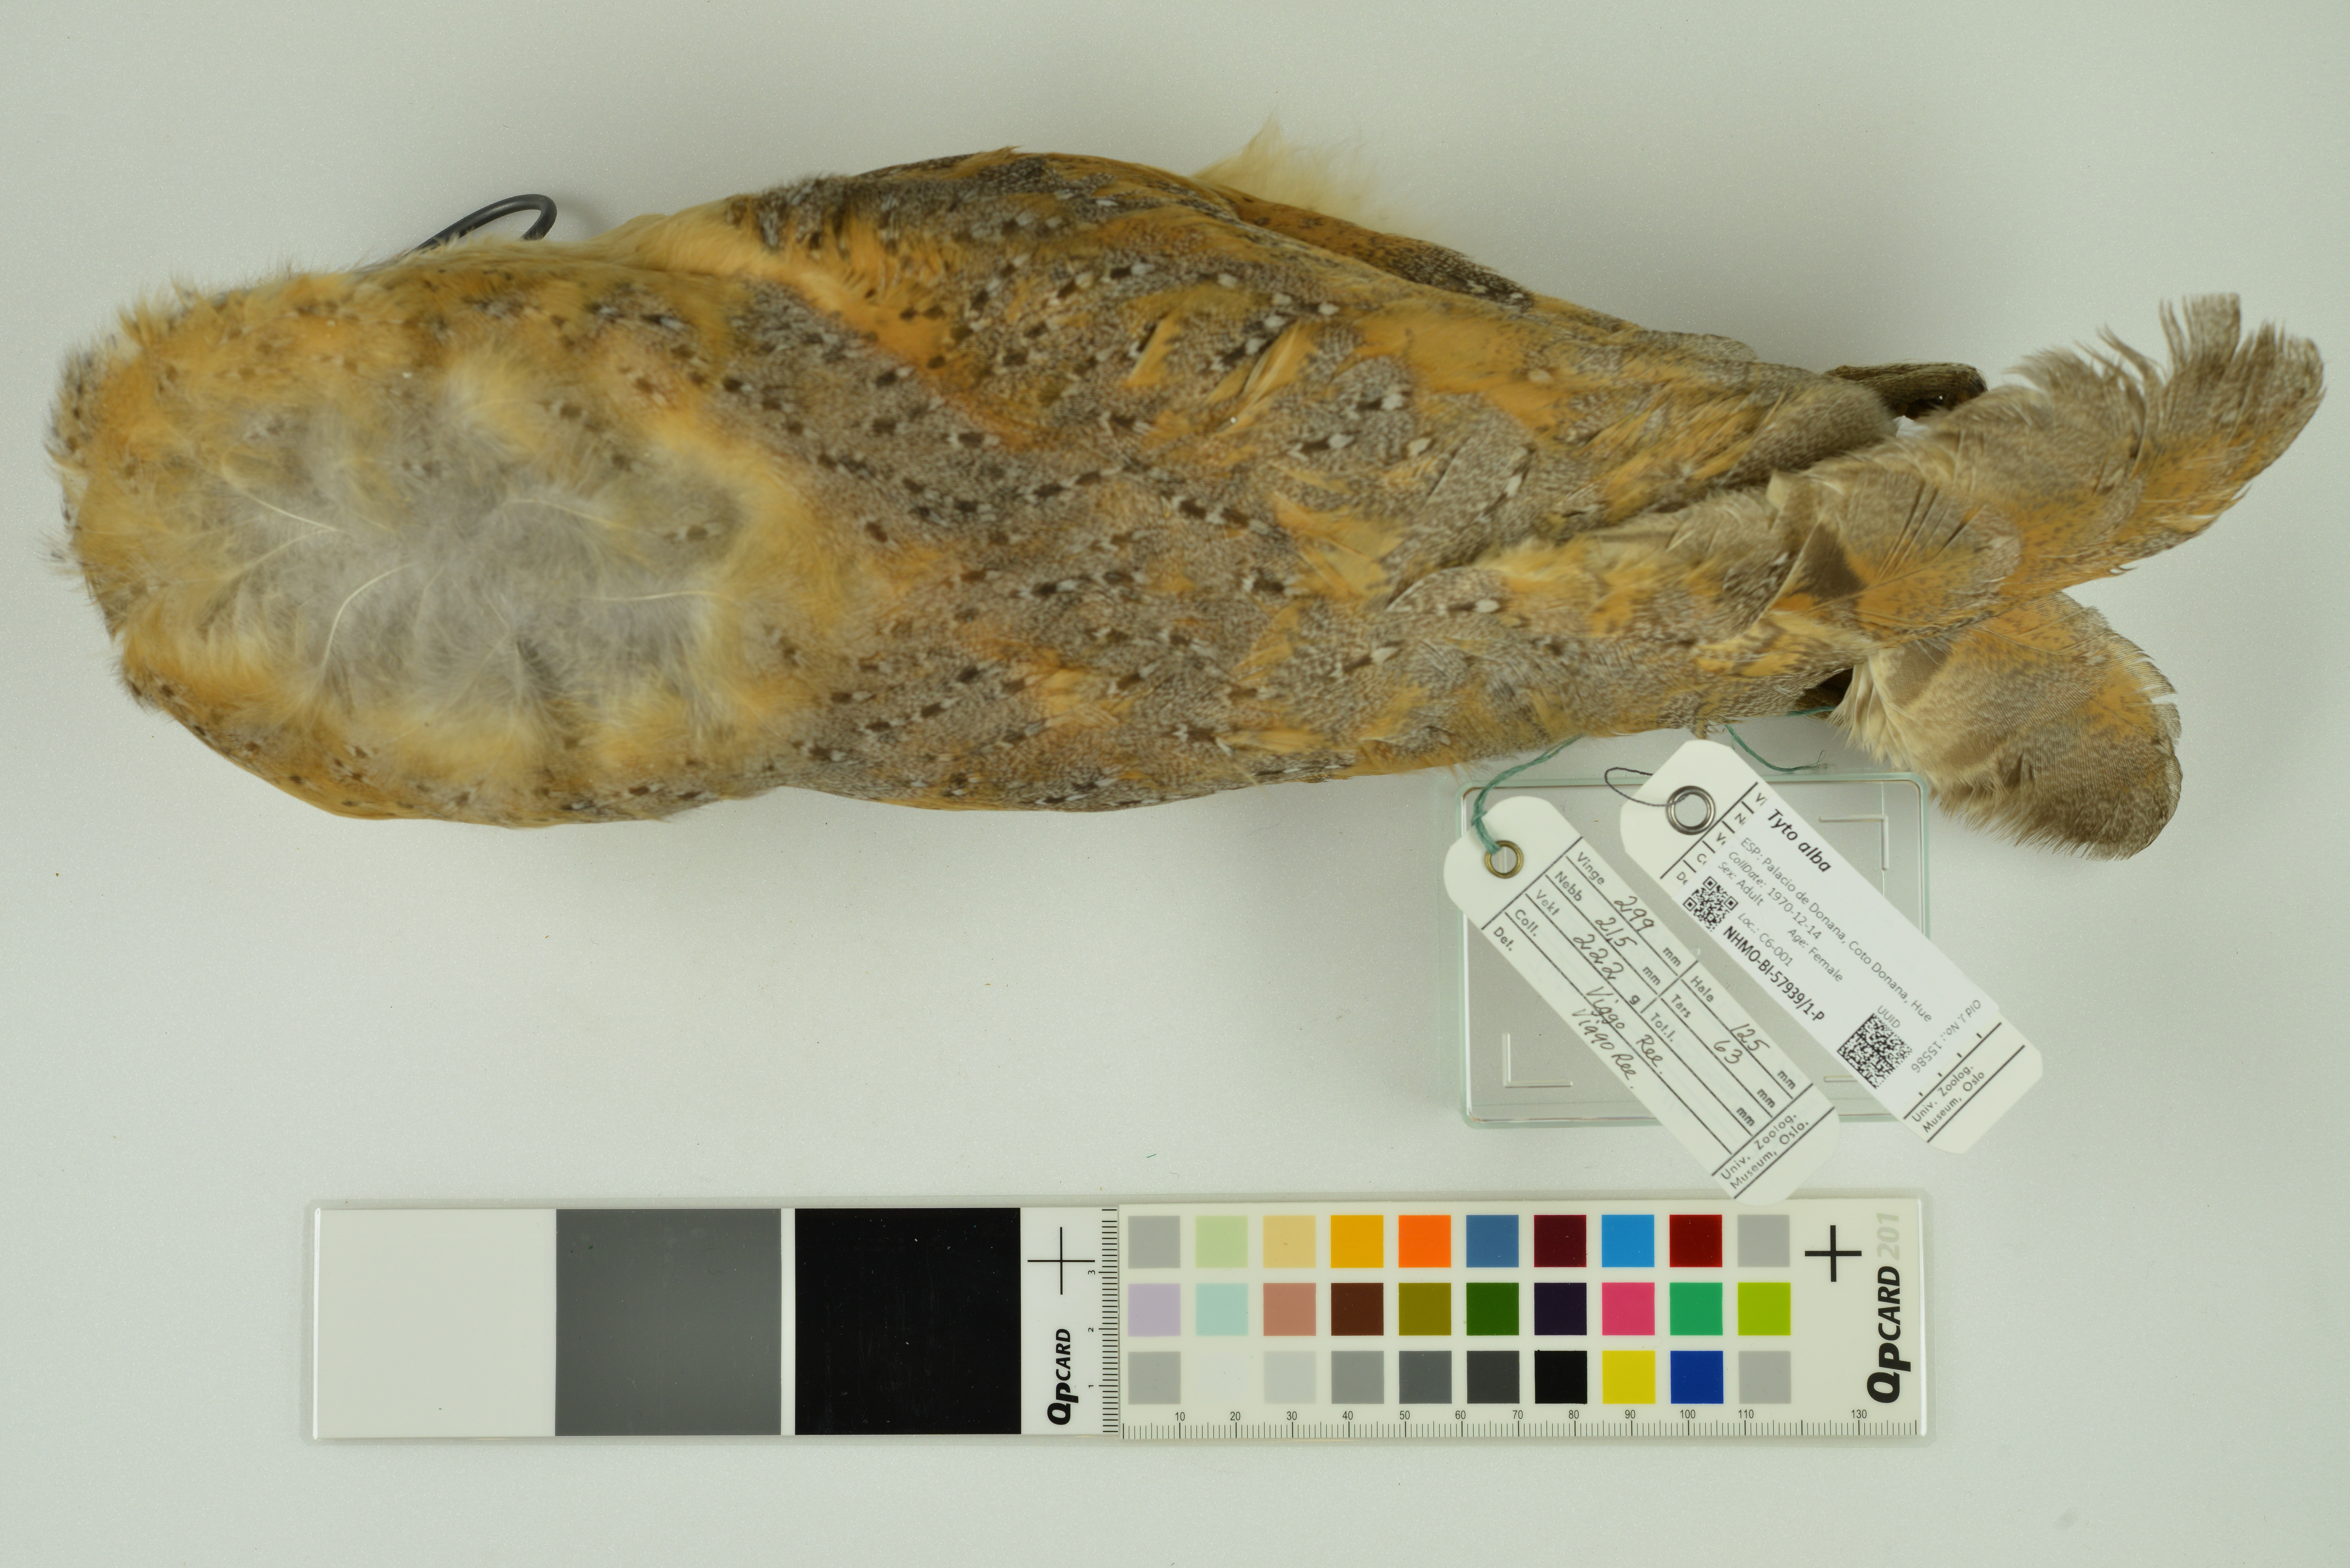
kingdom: Animalia
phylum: Chordata
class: Aves
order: Strigiformes
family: Tytonidae
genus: Tyto
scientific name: Tyto alba
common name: Barn owl
